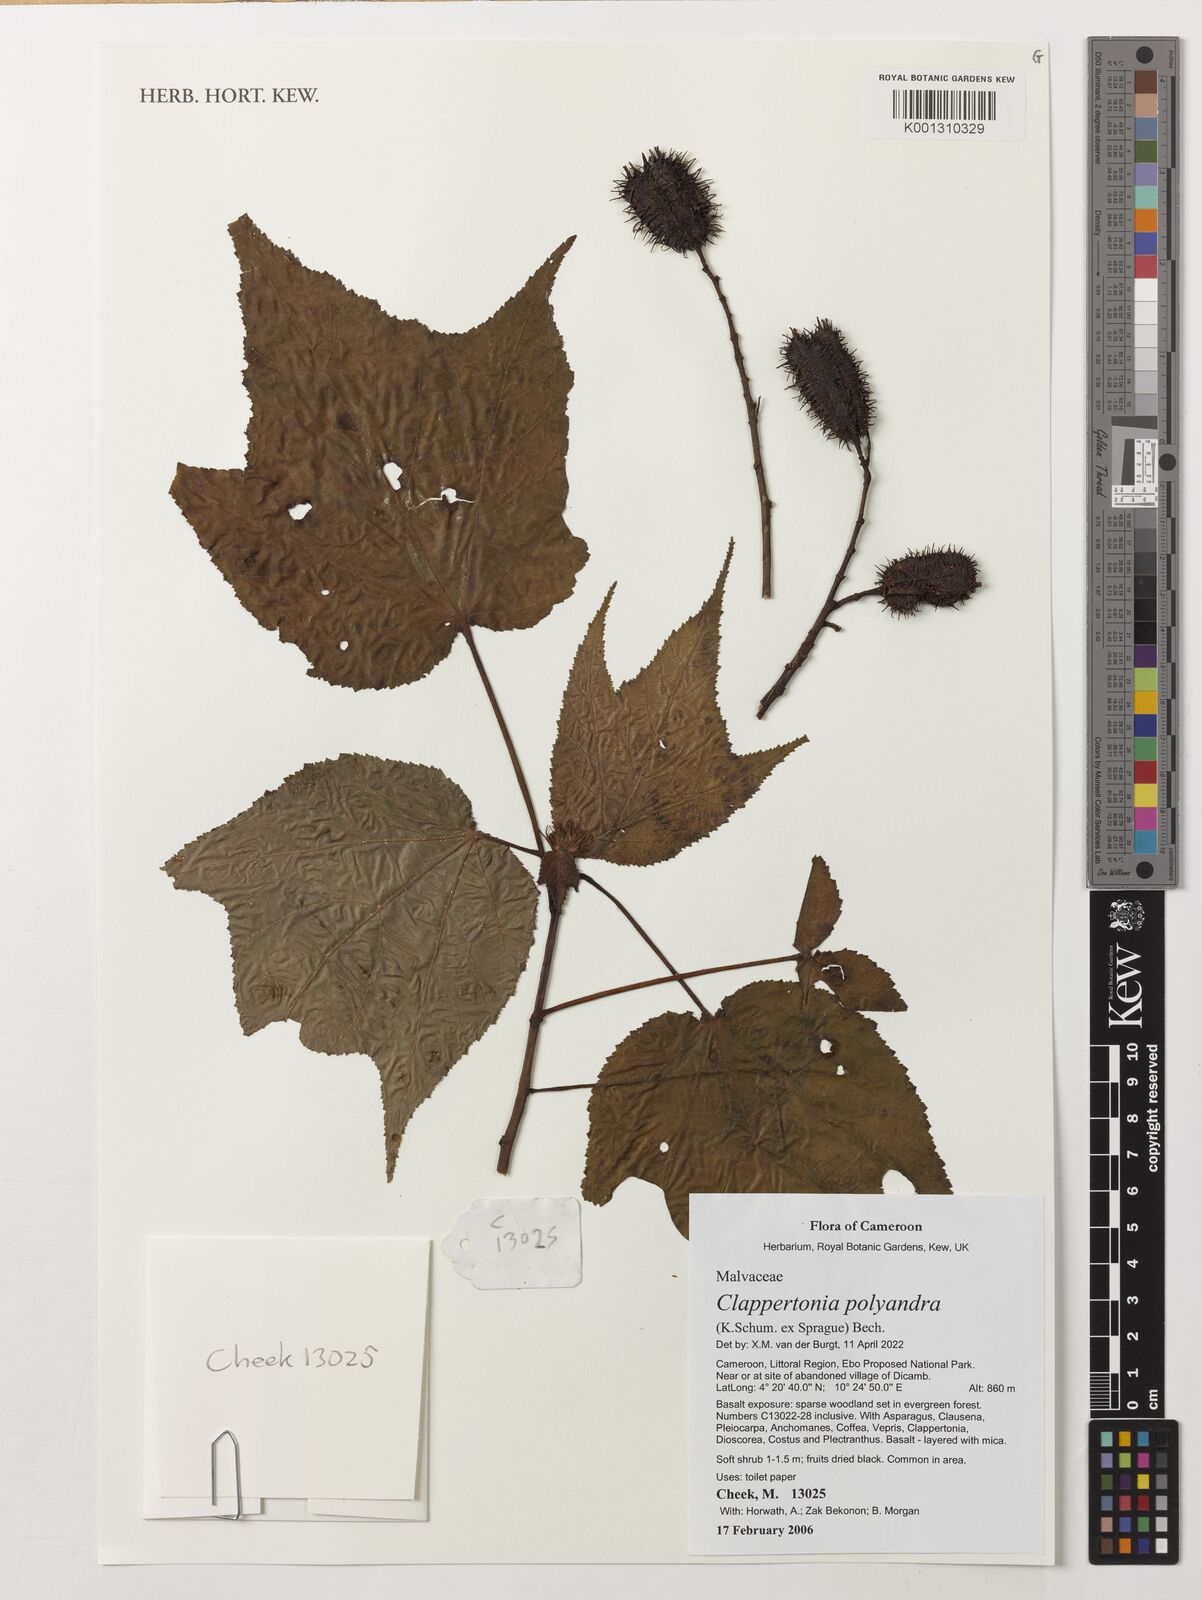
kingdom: Plantae
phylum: Tracheophyta
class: Magnoliopsida
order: Malvales
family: Malvaceae
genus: Clappertonia
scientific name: Clappertonia polyandra
